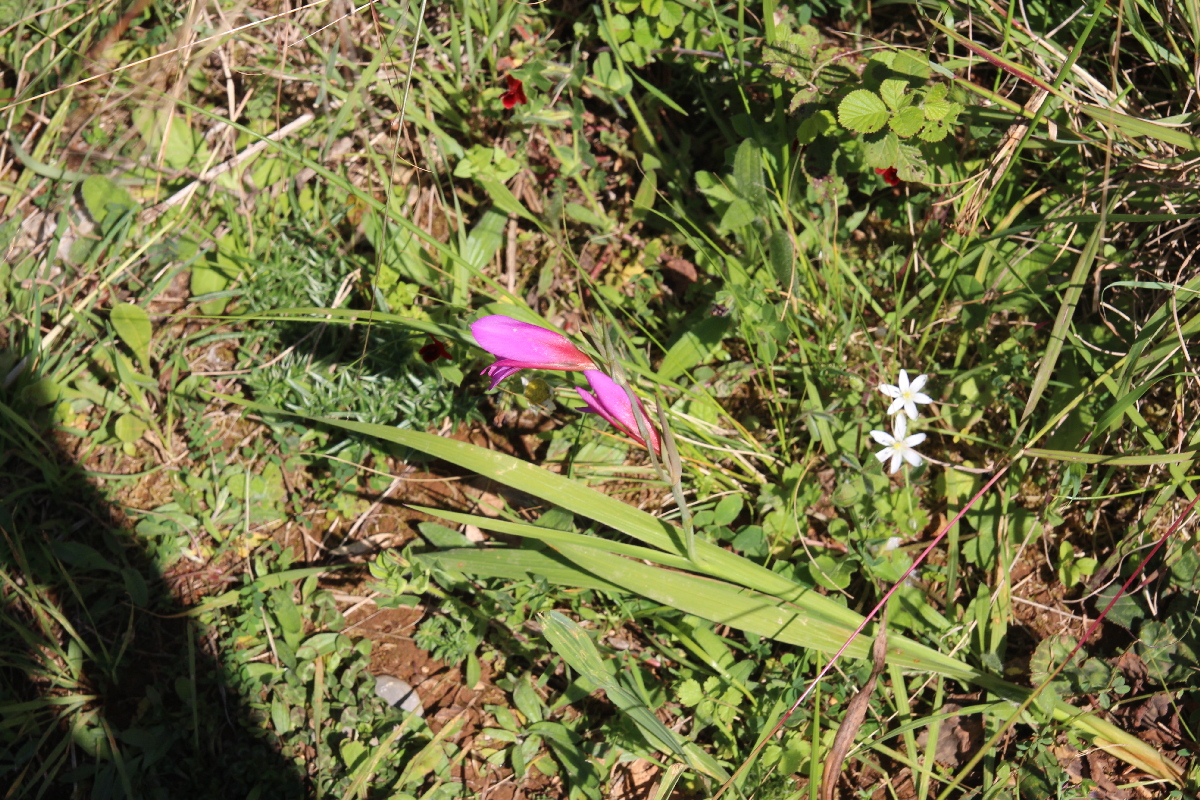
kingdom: Plantae
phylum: Tracheophyta
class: Liliopsida
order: Asparagales
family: Iridaceae
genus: Gladiolus
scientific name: Gladiolus italicus
